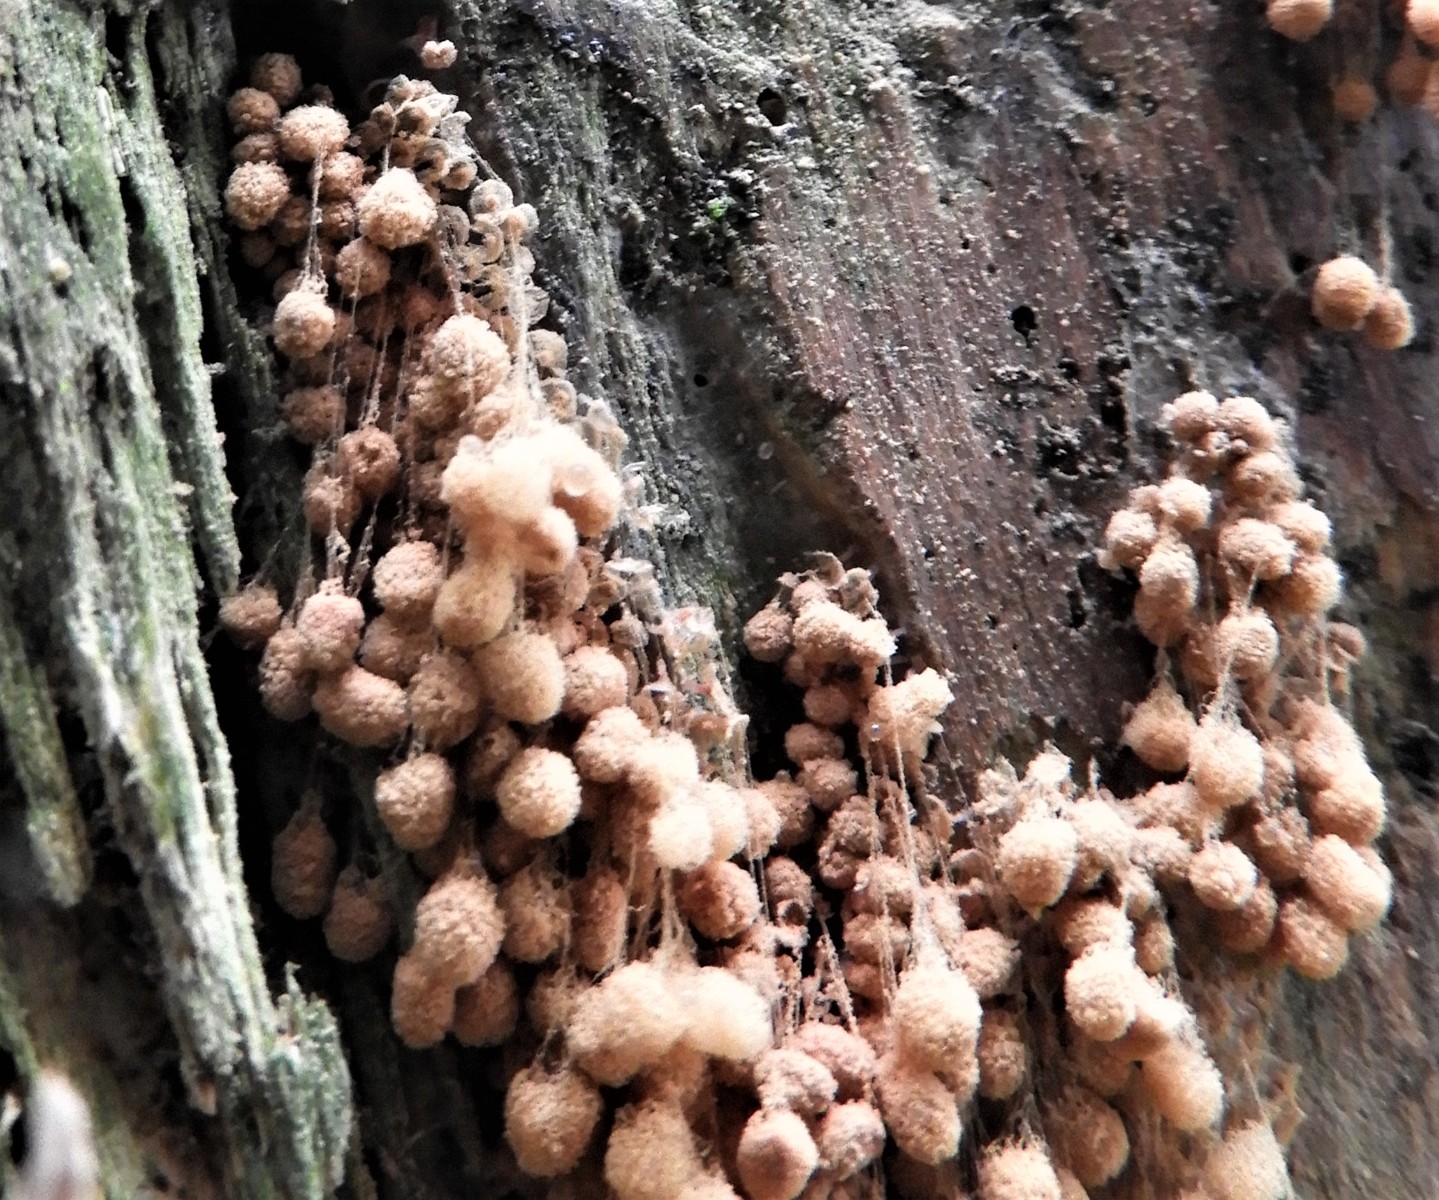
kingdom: Protozoa
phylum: Amoebozoa
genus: Arcyria
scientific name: Arcyria
